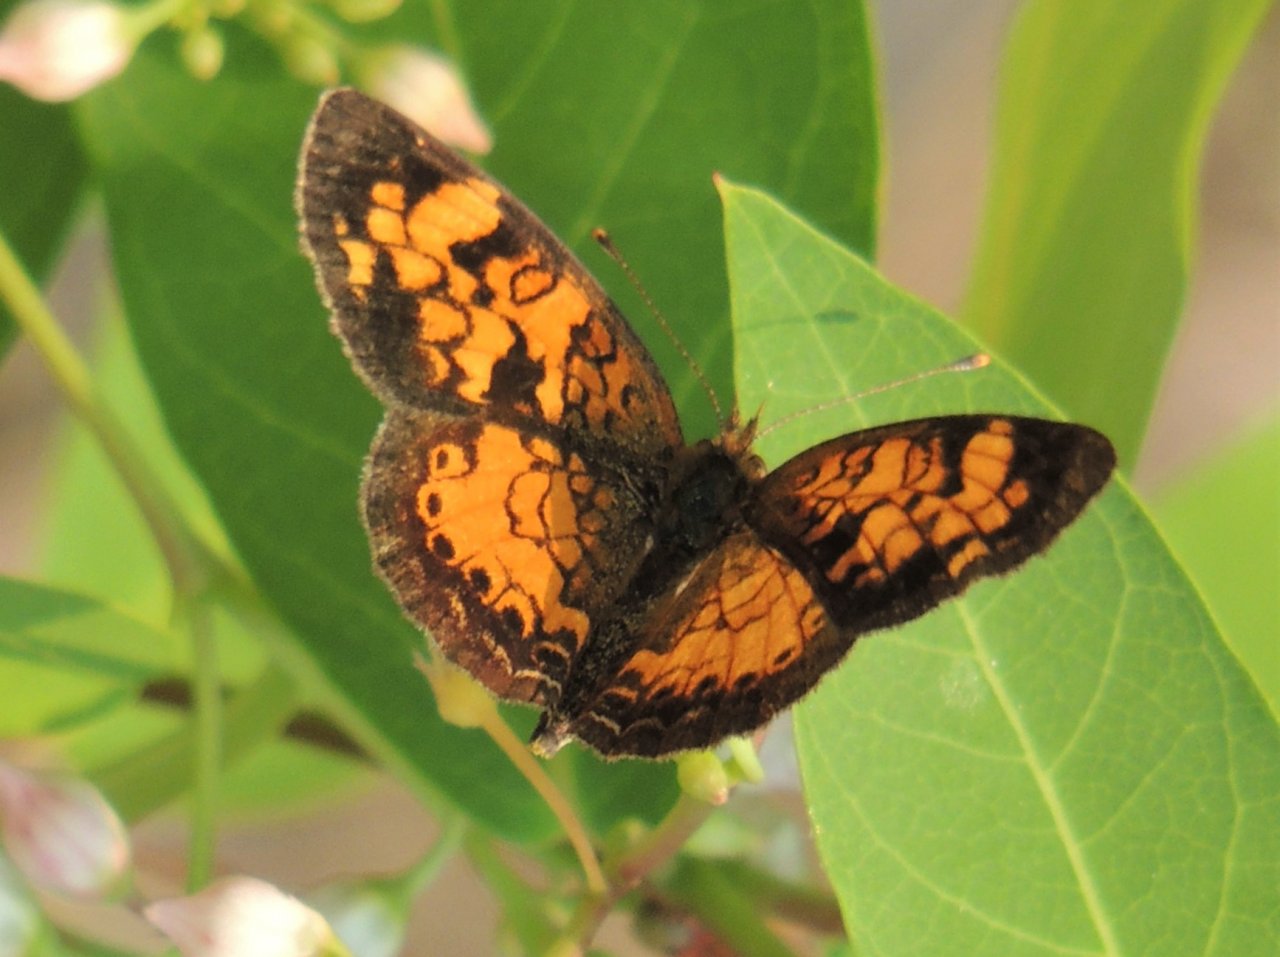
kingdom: Animalia
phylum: Arthropoda
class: Insecta
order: Lepidoptera
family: Nymphalidae
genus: Phyciodes
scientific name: Phyciodes tharos
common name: Northern Crescent
